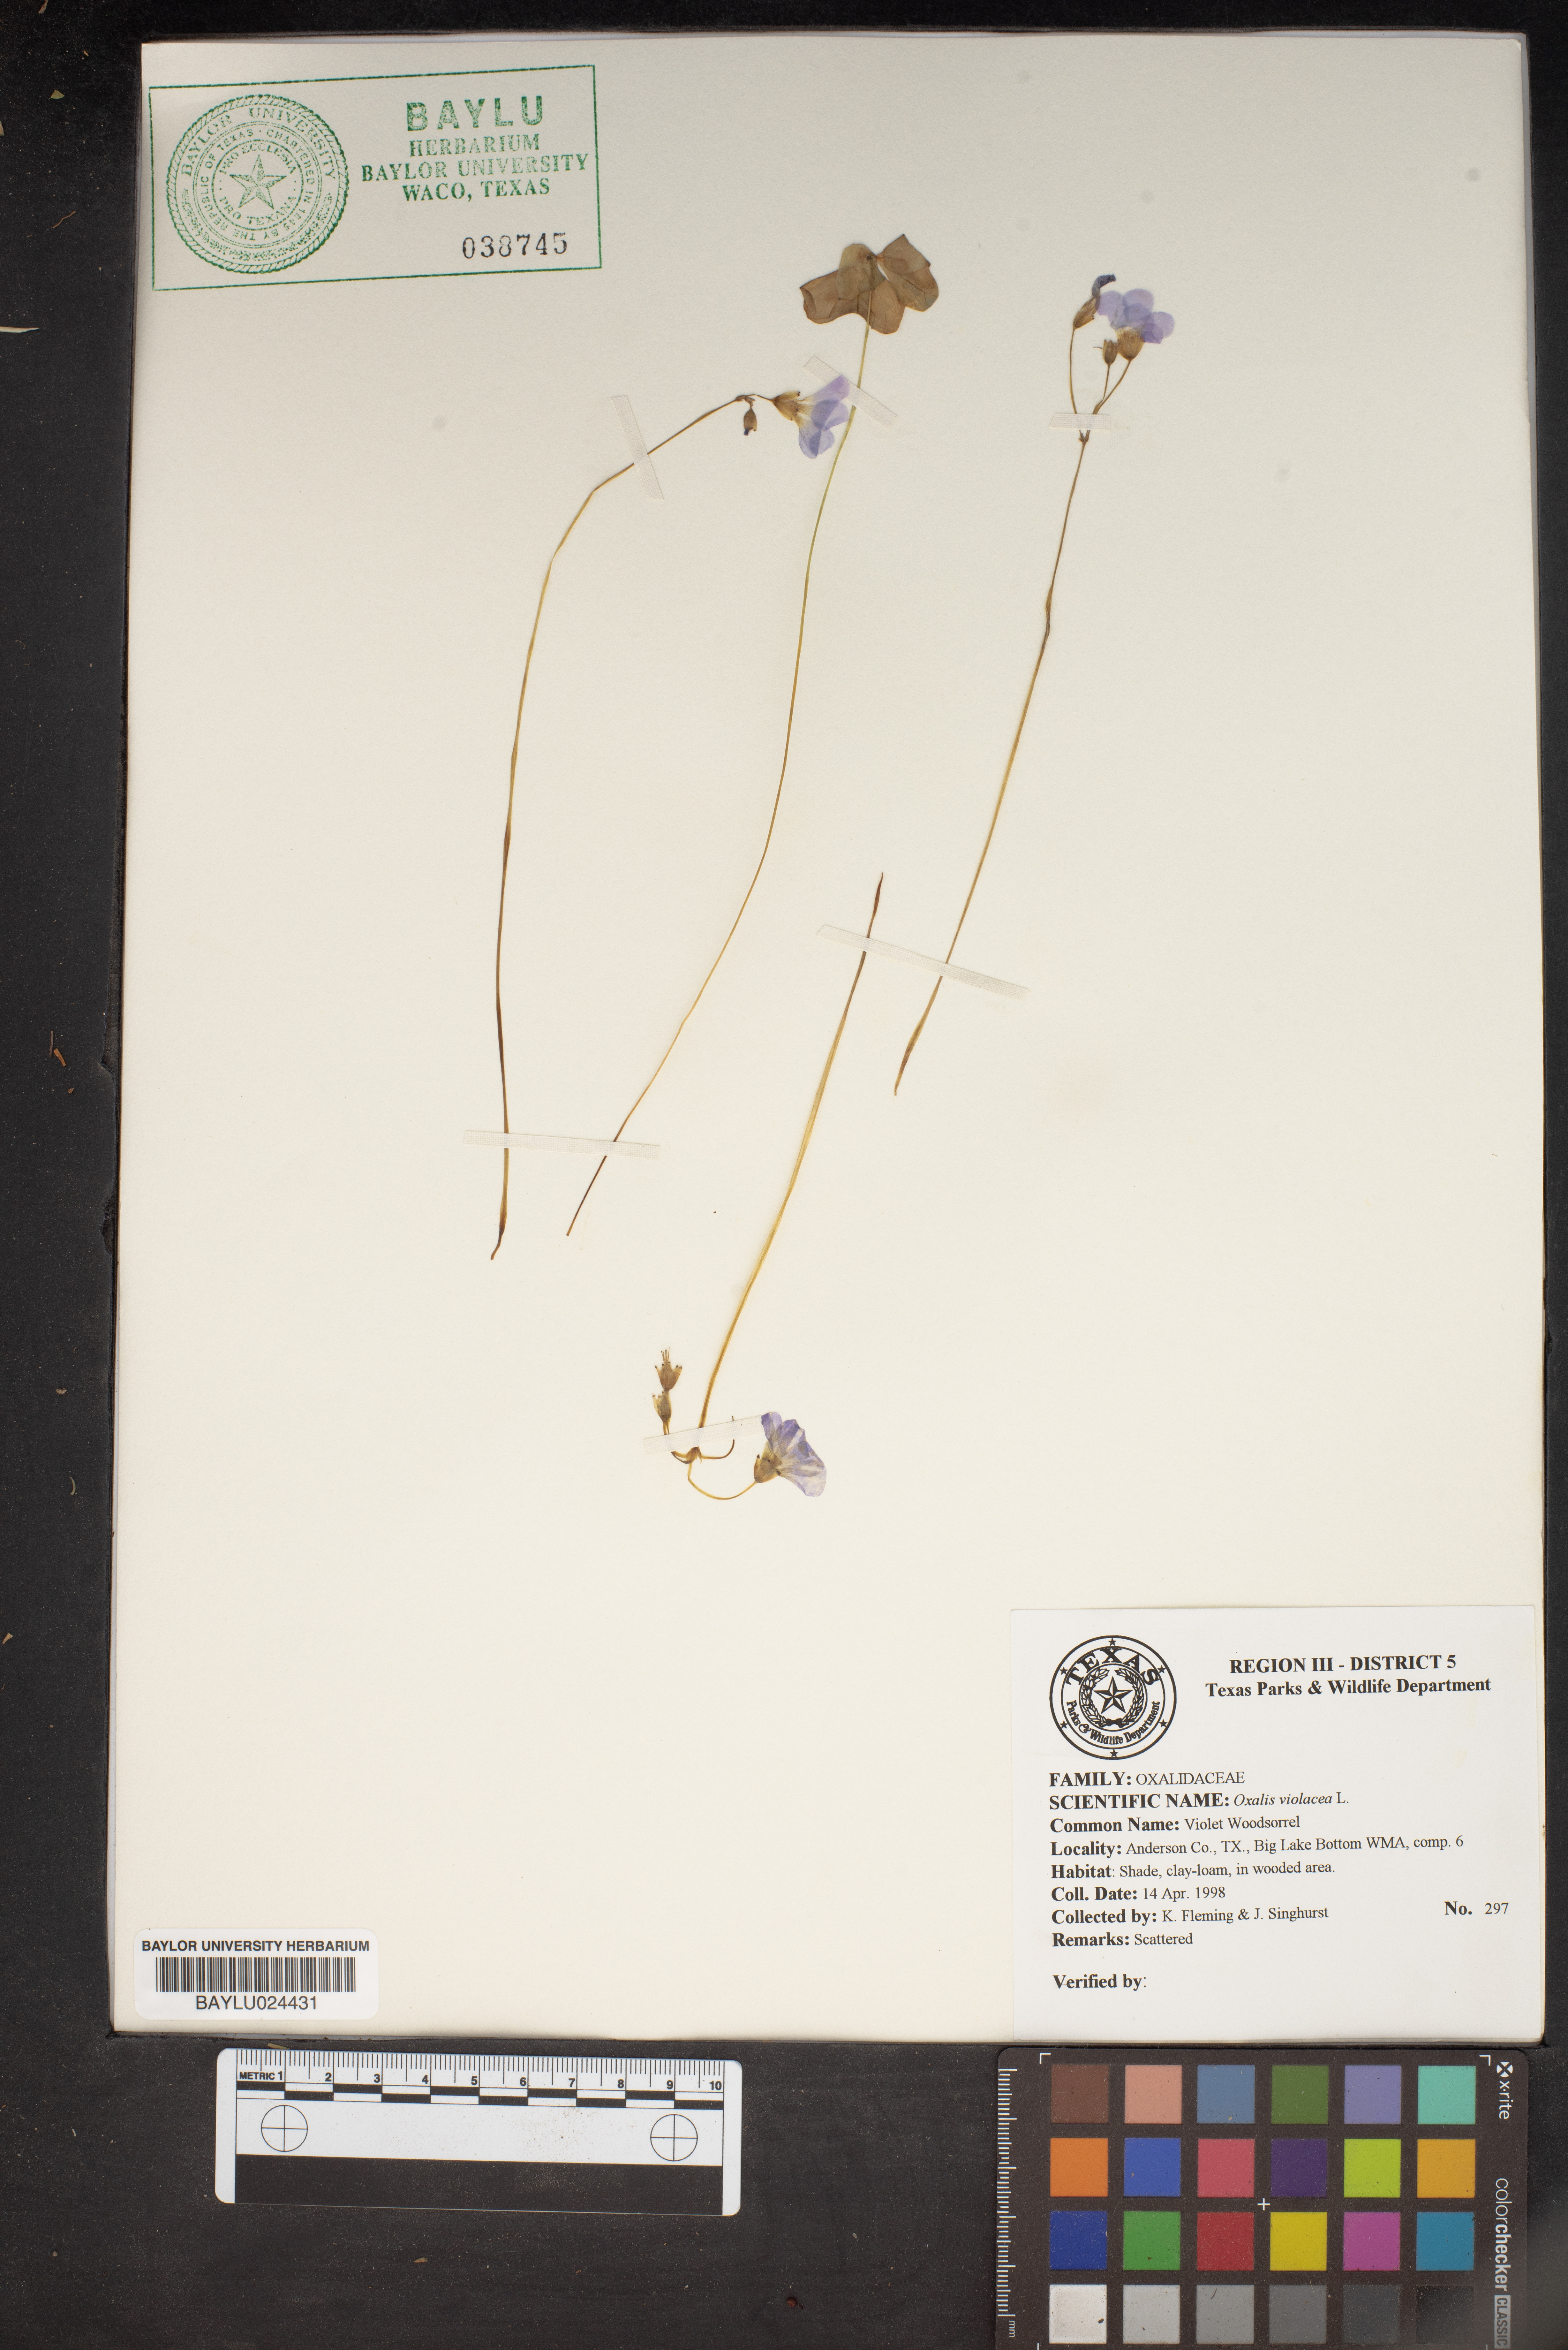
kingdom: Plantae
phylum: Tracheophyta
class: Magnoliopsida
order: Oxalidales
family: Oxalidaceae
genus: Oxalis
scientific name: Oxalis violacea
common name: Violet wood-sorrel
